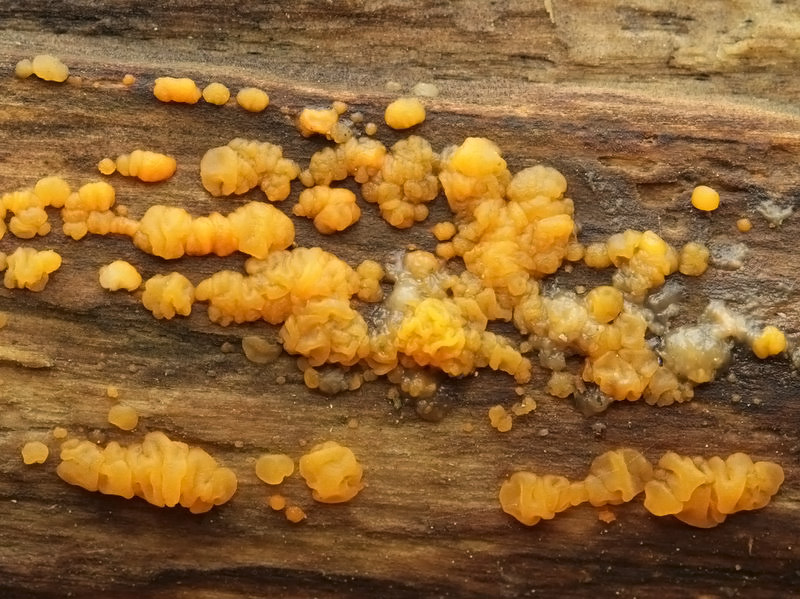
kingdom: Fungi
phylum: Basidiomycota
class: Dacrymycetes
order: Dacrymycetales
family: Dacrymycetaceae
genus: Dacrymyces
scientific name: Dacrymyces lacrymalis
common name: rynket tåresvamp
